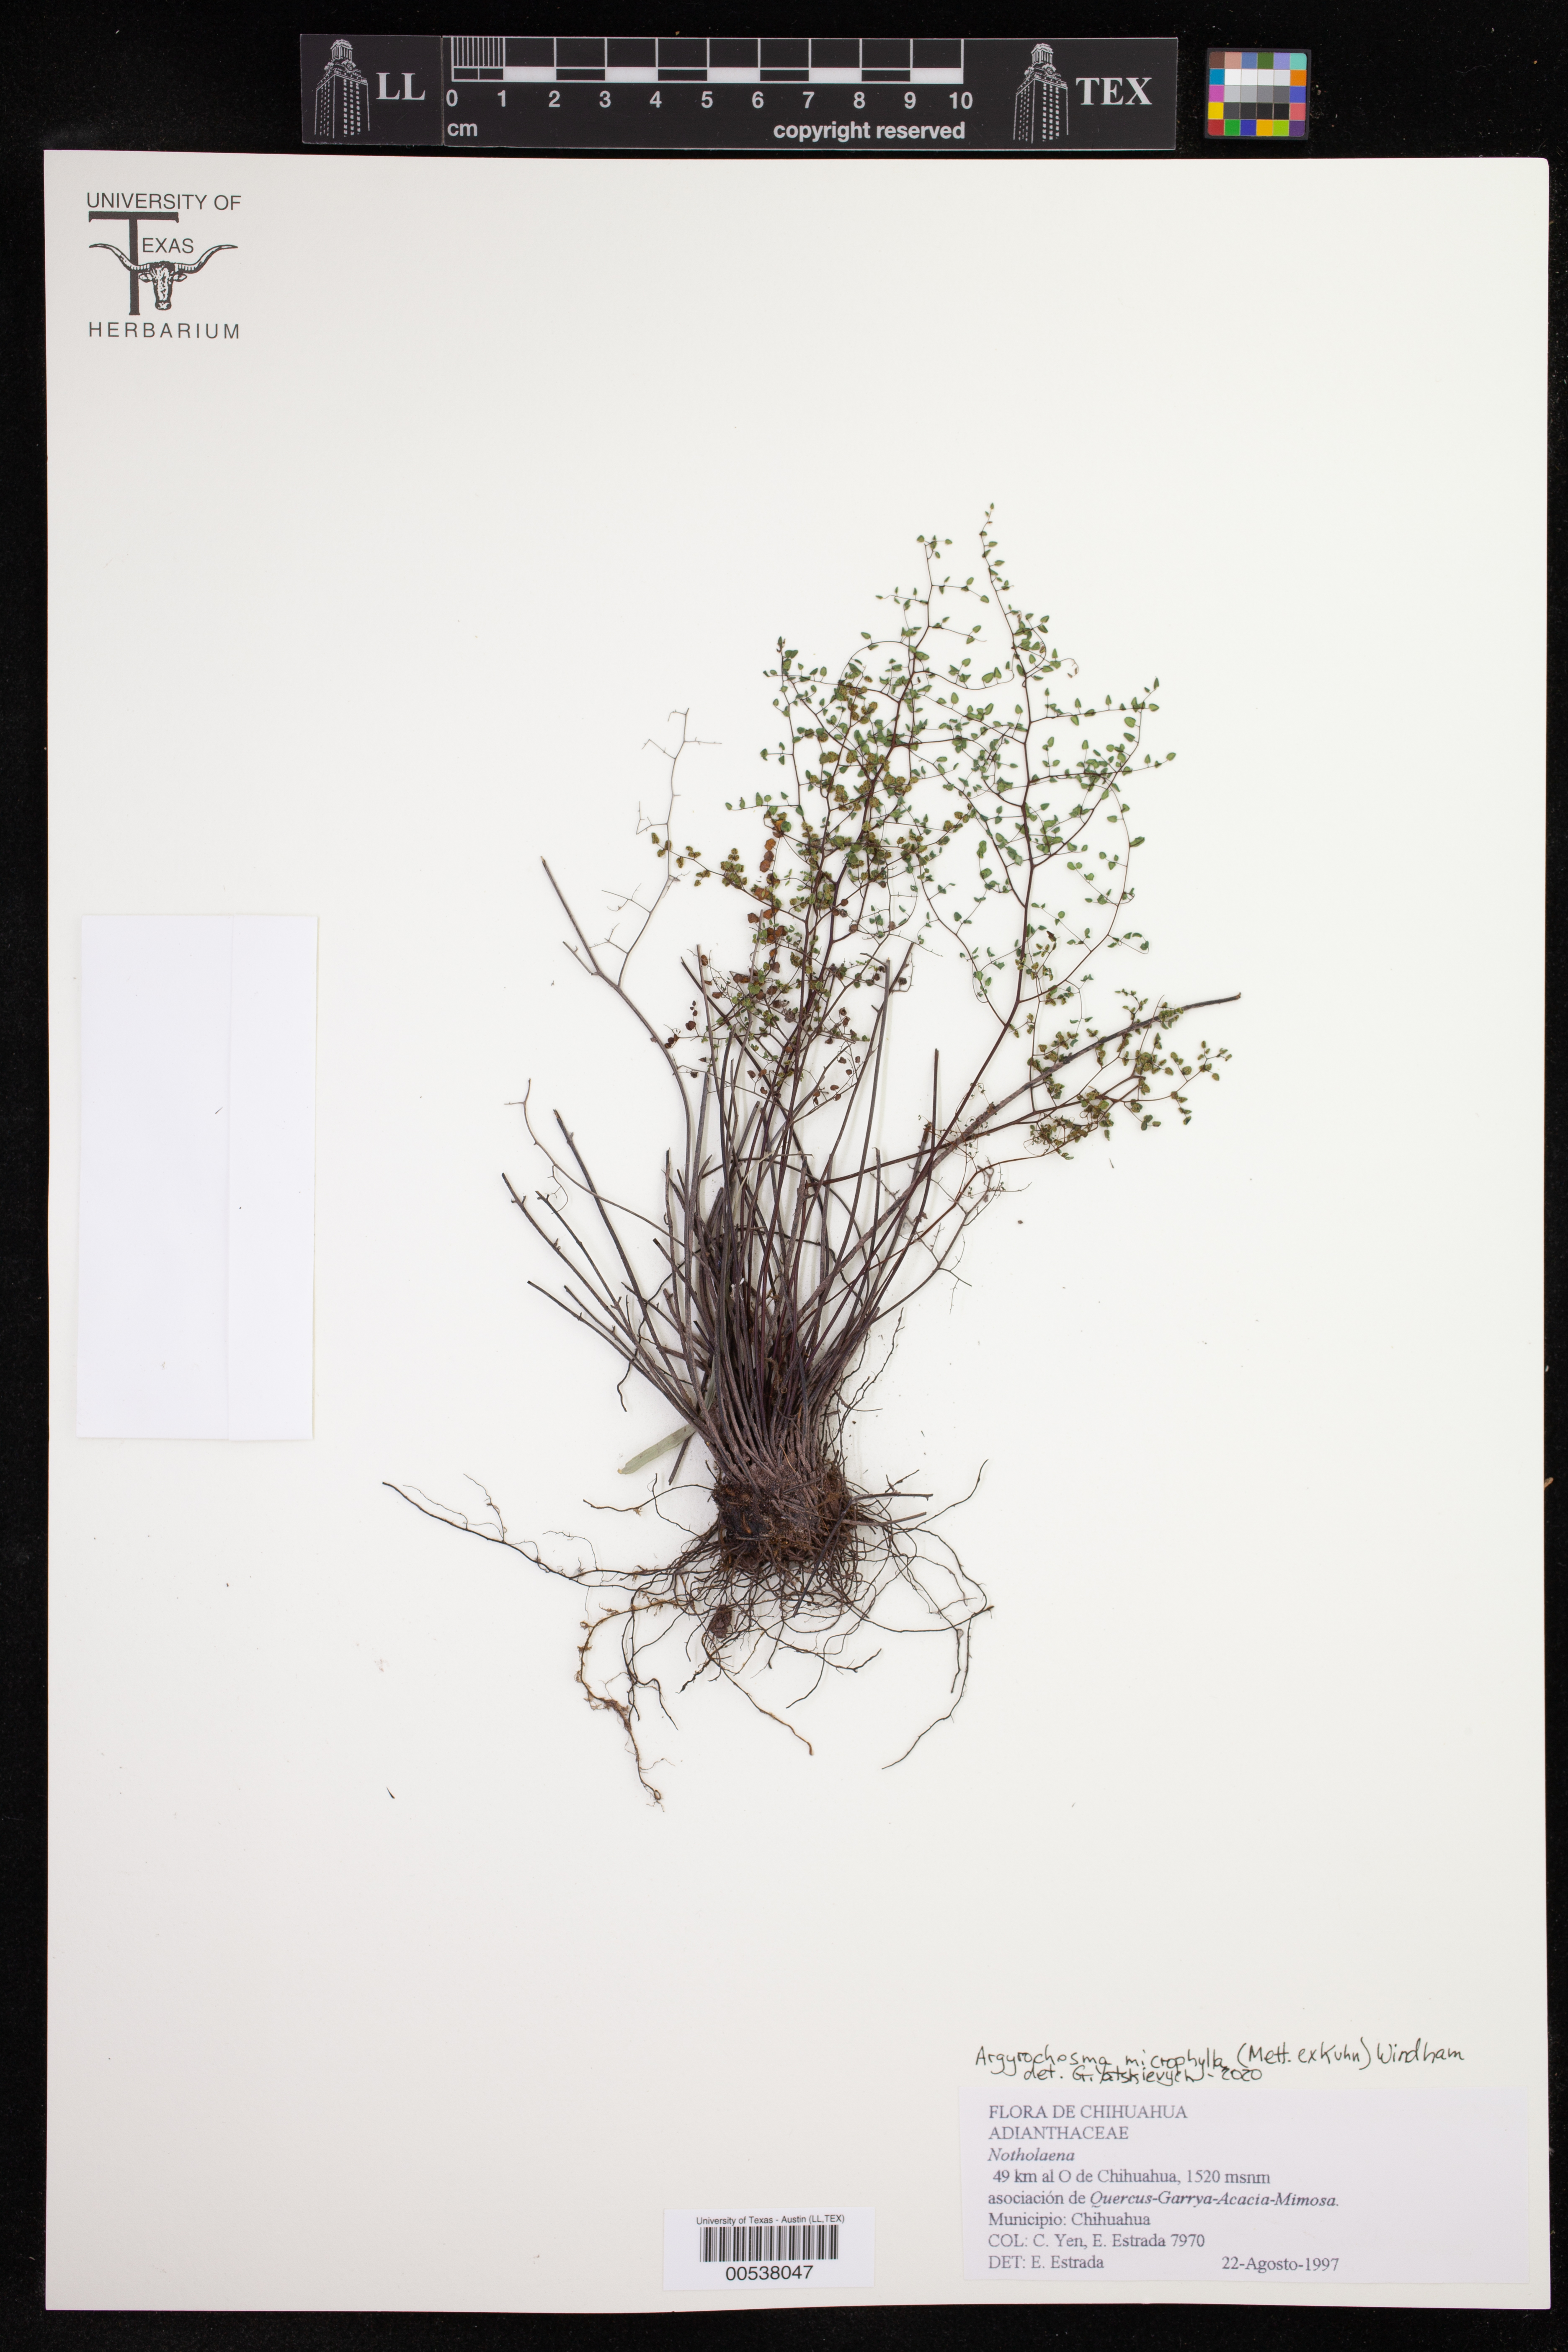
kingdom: Plantae
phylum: Tracheophyta
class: Polypodiopsida
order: Polypodiales
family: Pteridaceae
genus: Argyrochosma
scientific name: Argyrochosma microphylla
